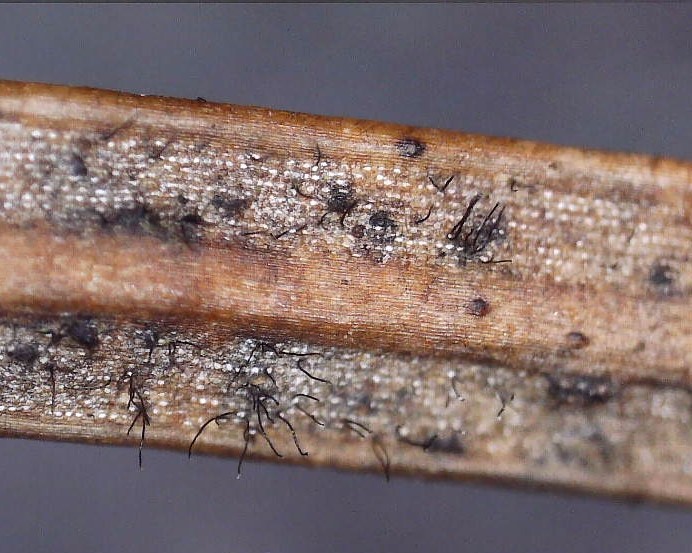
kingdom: Fungi
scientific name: Fungi
